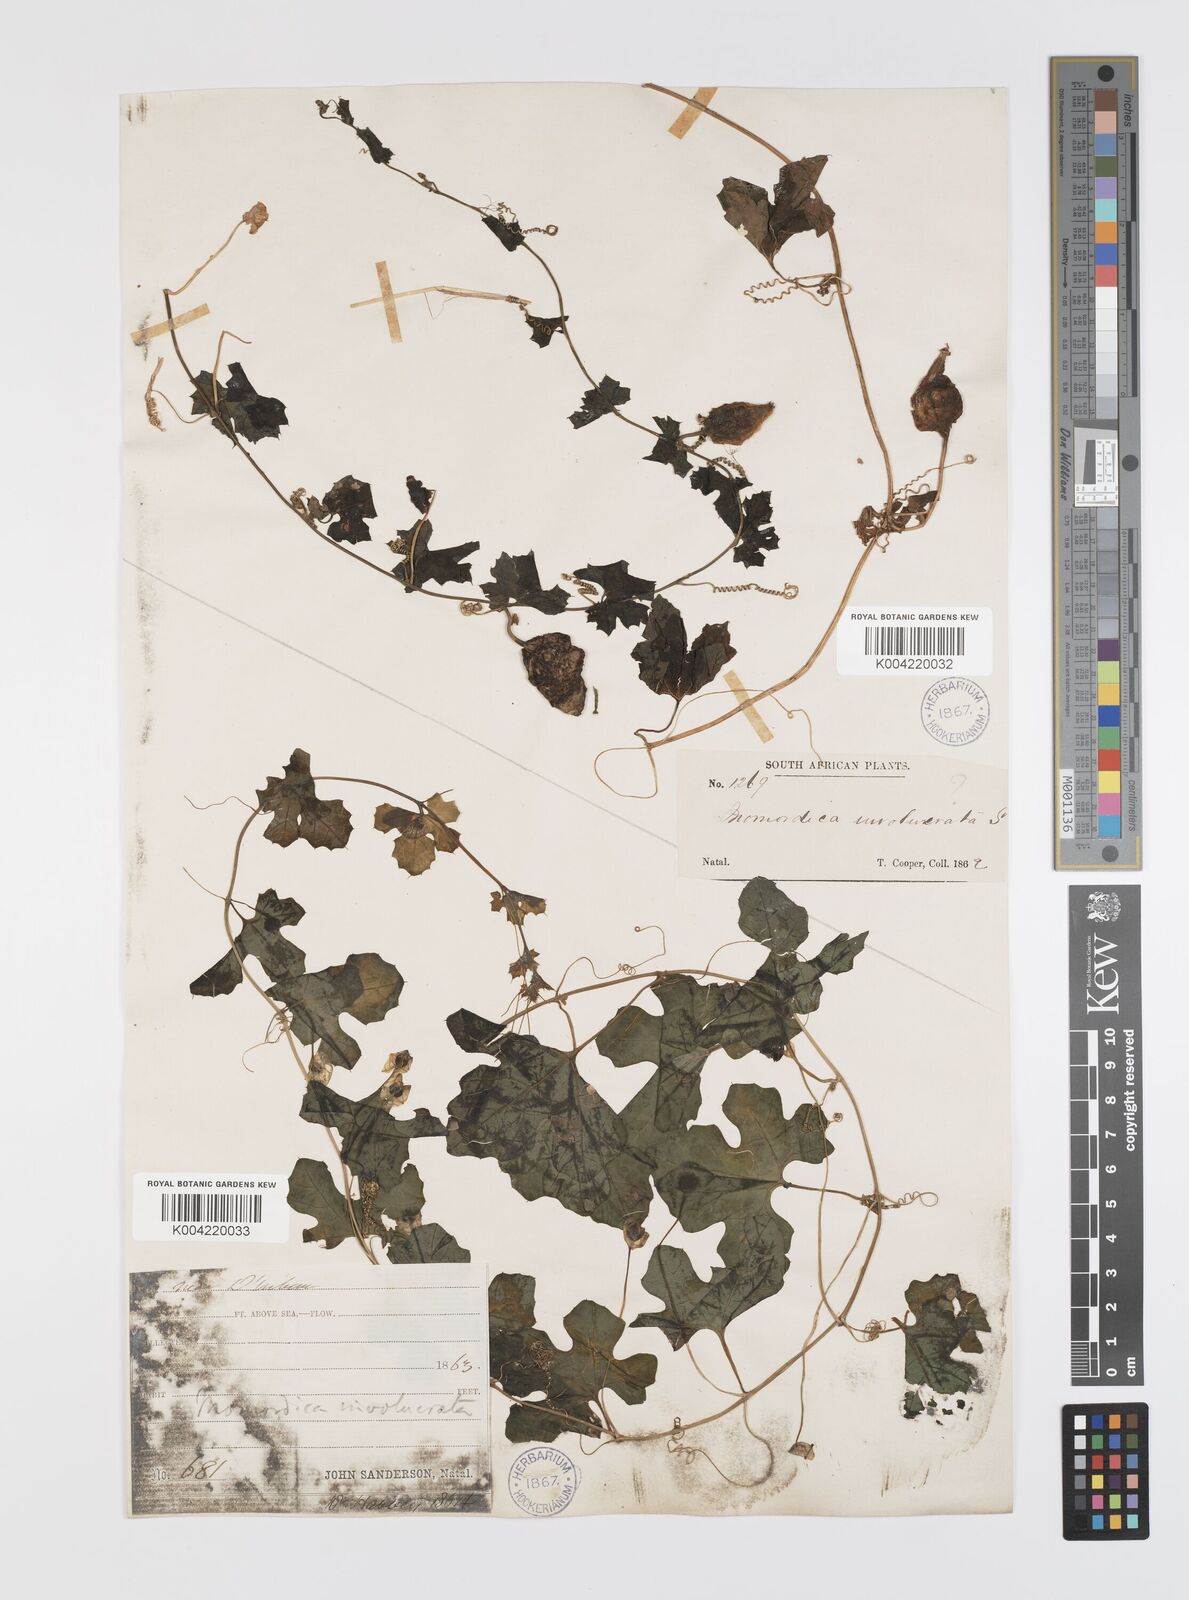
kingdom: Plantae
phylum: Tracheophyta
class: Magnoliopsida
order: Cucurbitales
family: Cucurbitaceae
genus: Momordica
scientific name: Momordica balsamina
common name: Southern balsampear
